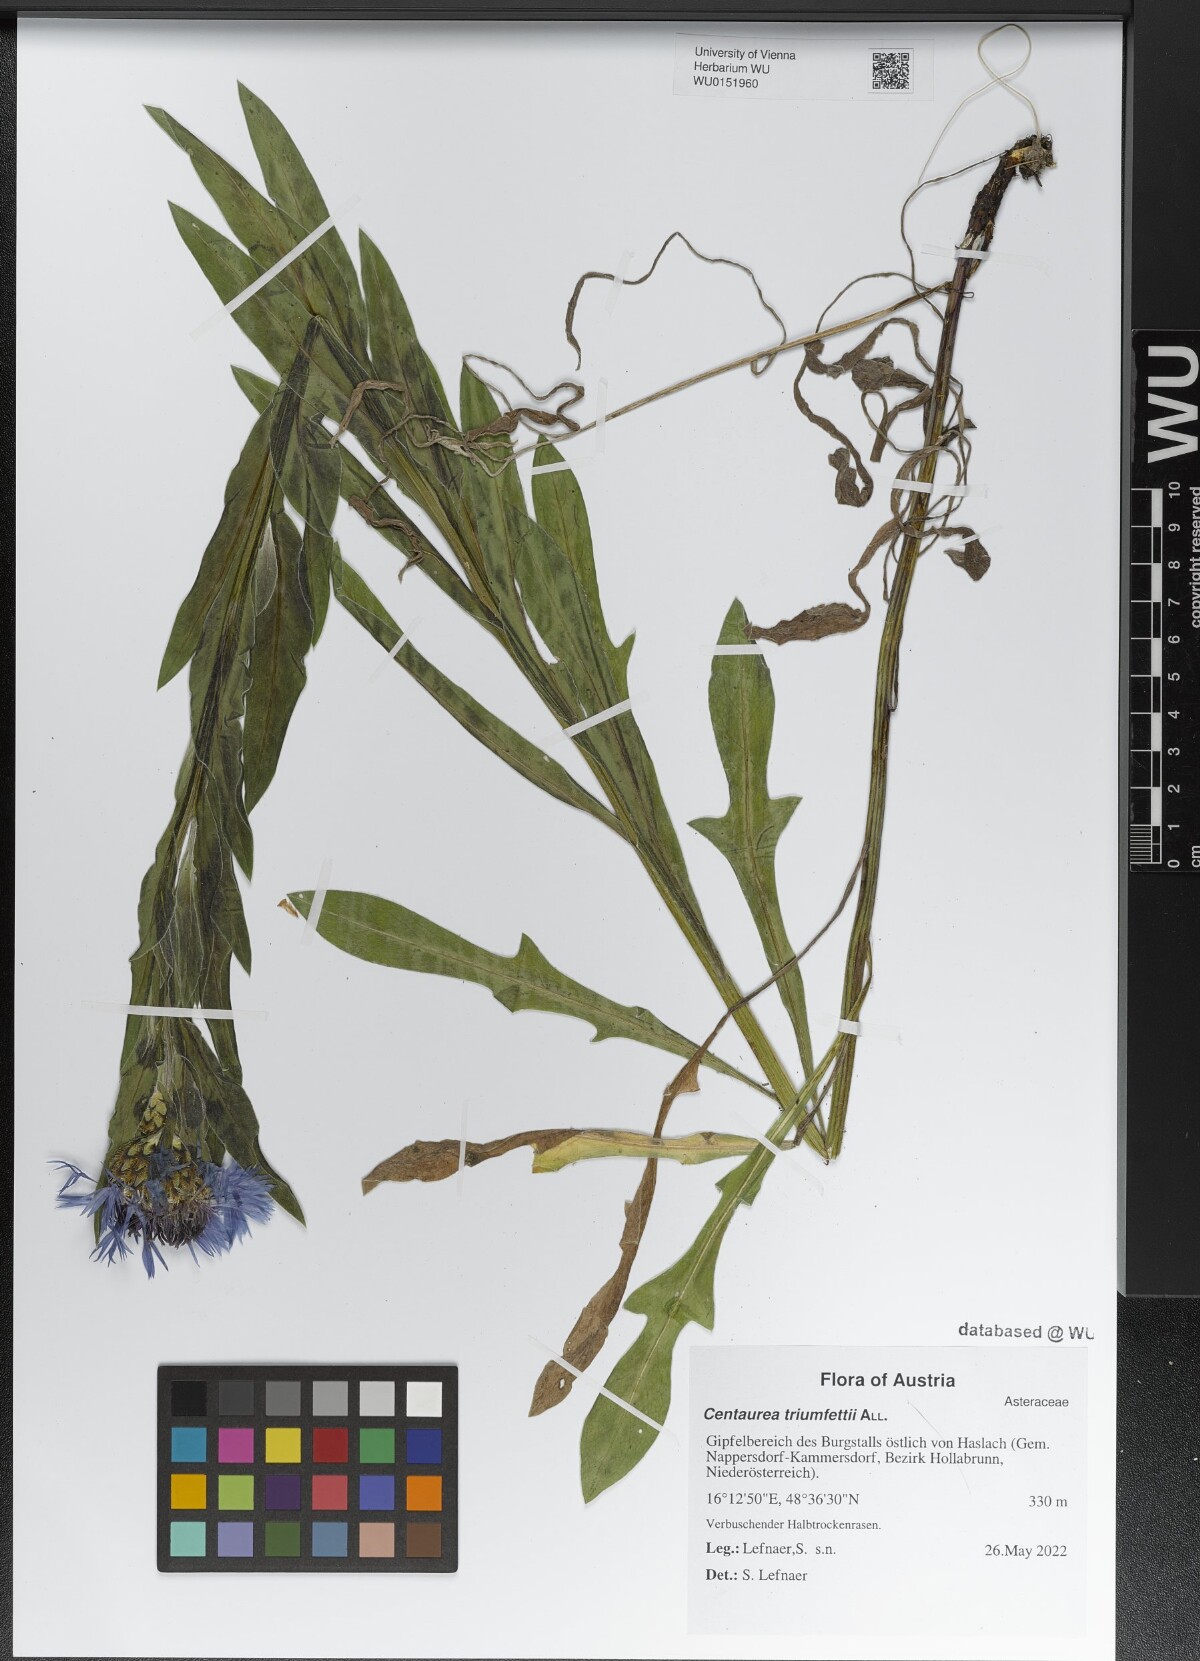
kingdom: Plantae
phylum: Tracheophyta
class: Magnoliopsida
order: Asterales
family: Asteraceae
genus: Centaurea
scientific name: Centaurea triumfettii
